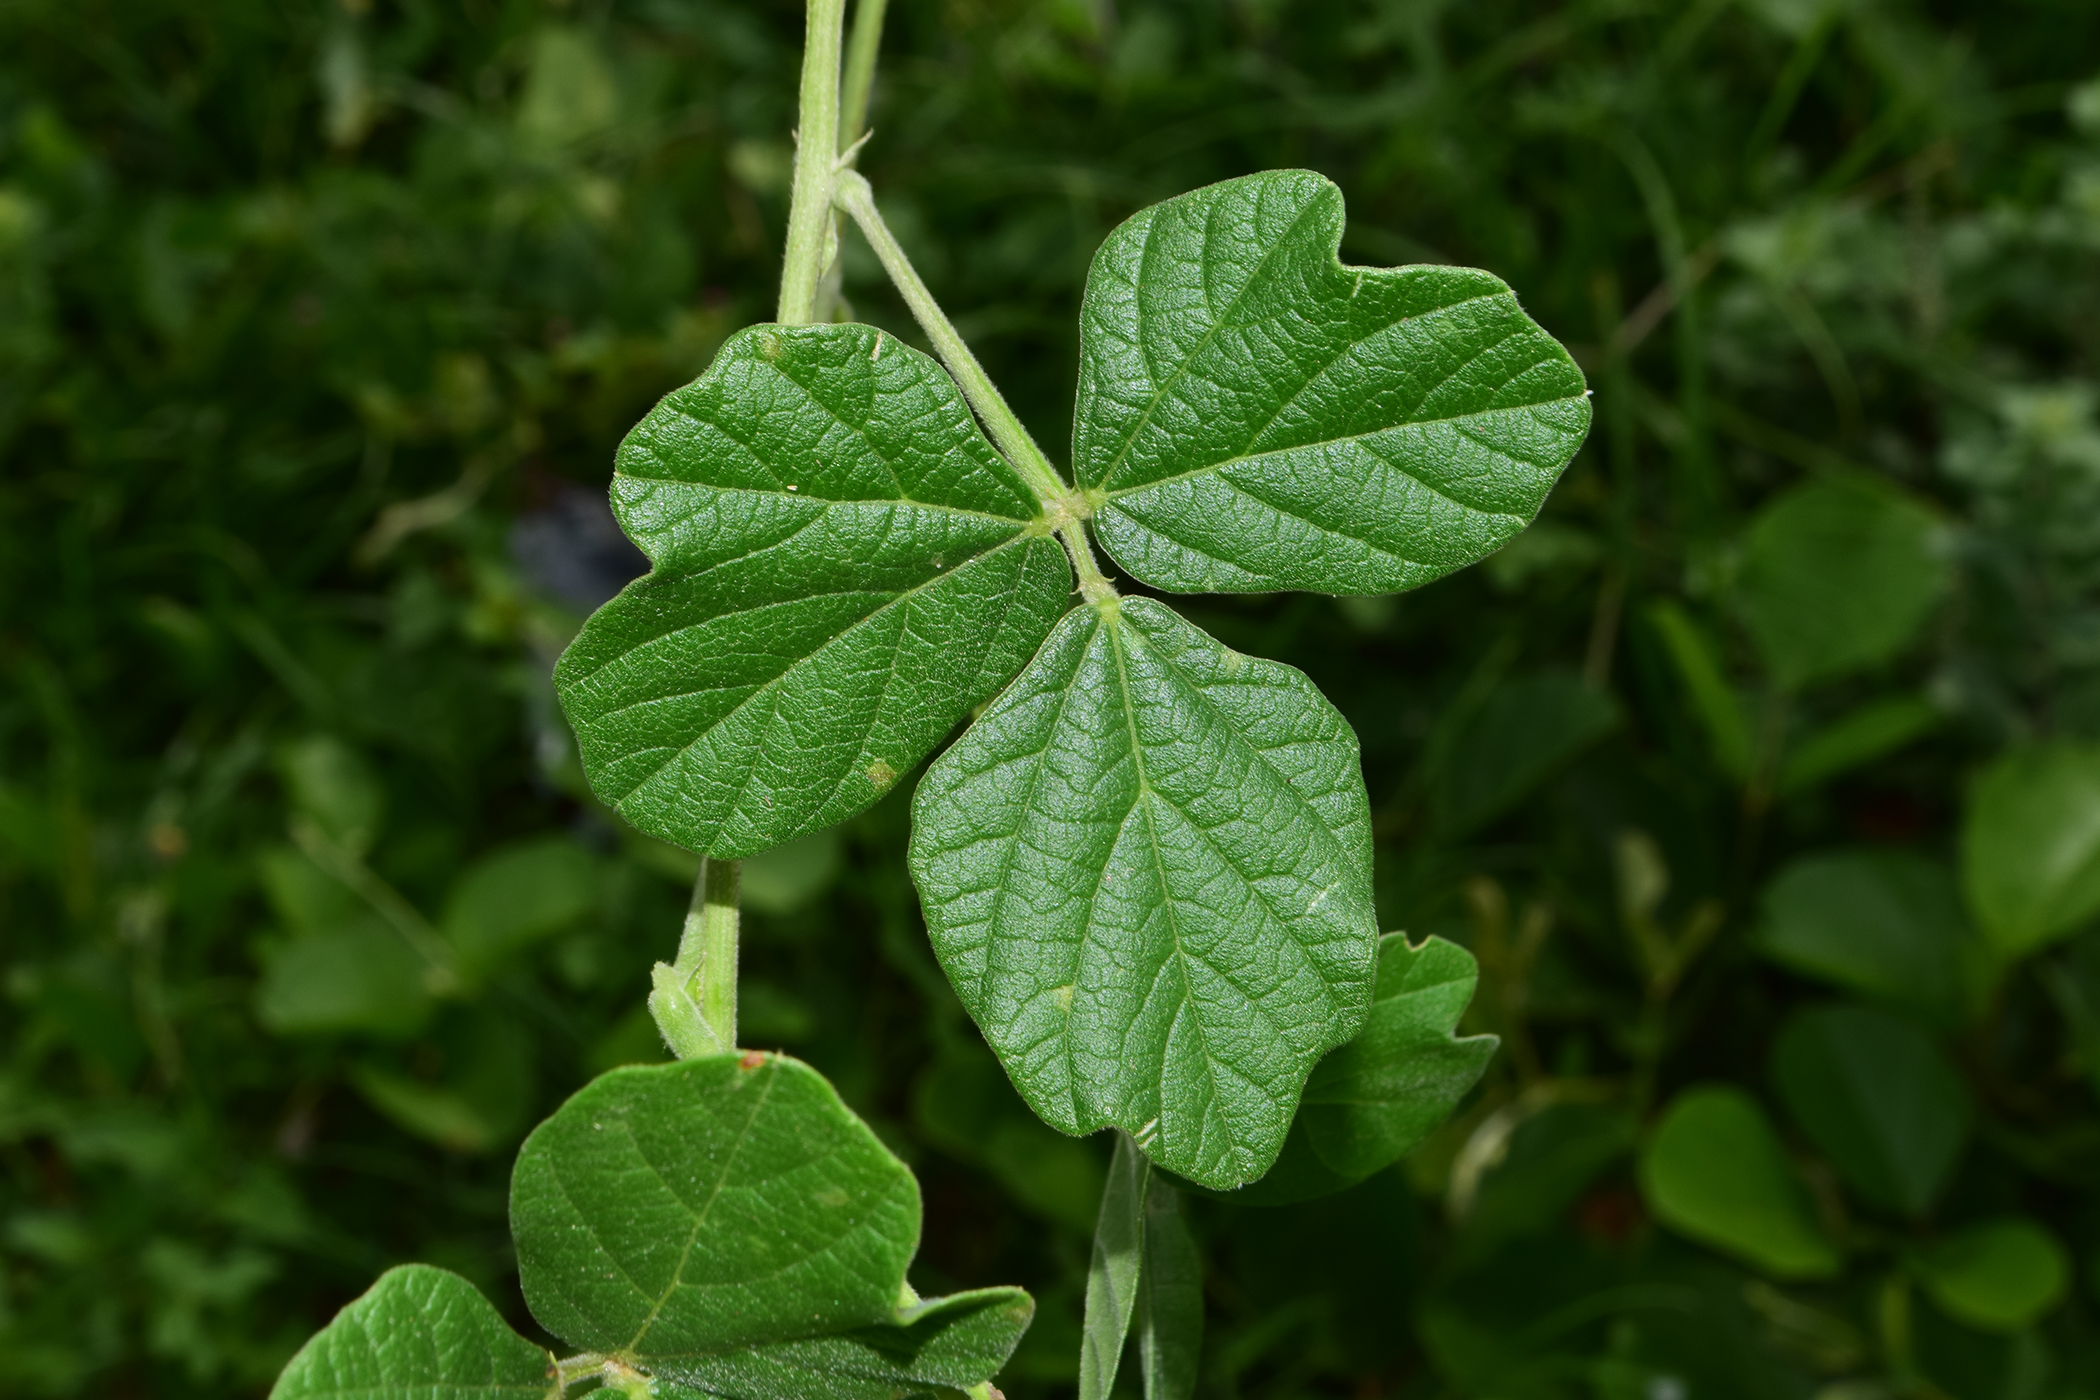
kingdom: Plantae
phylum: Tracheophyta
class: Magnoliopsida
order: Fabales
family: Fabaceae
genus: Macroptilium
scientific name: Macroptilium atropurpureum
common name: Purple bushbean
